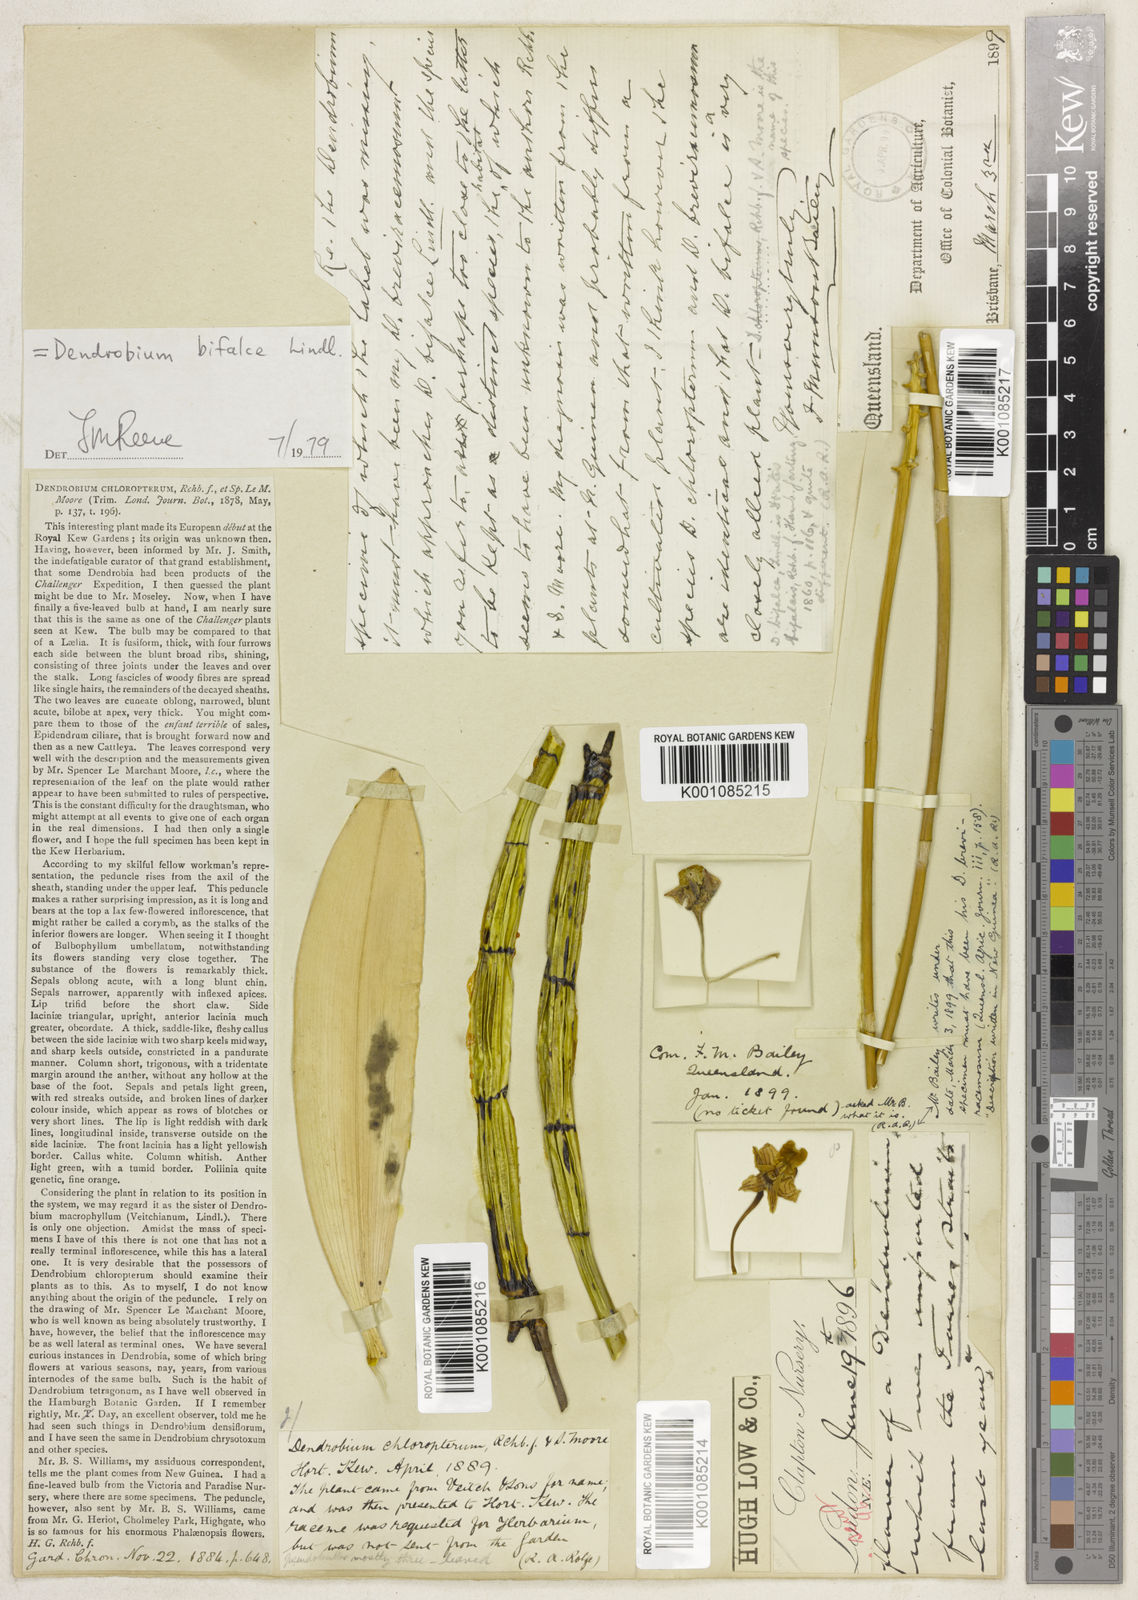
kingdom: Plantae
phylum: Tracheophyta
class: Liliopsida
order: Asparagales
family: Orchidaceae
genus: Dendrobium
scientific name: Dendrobium bifalce
